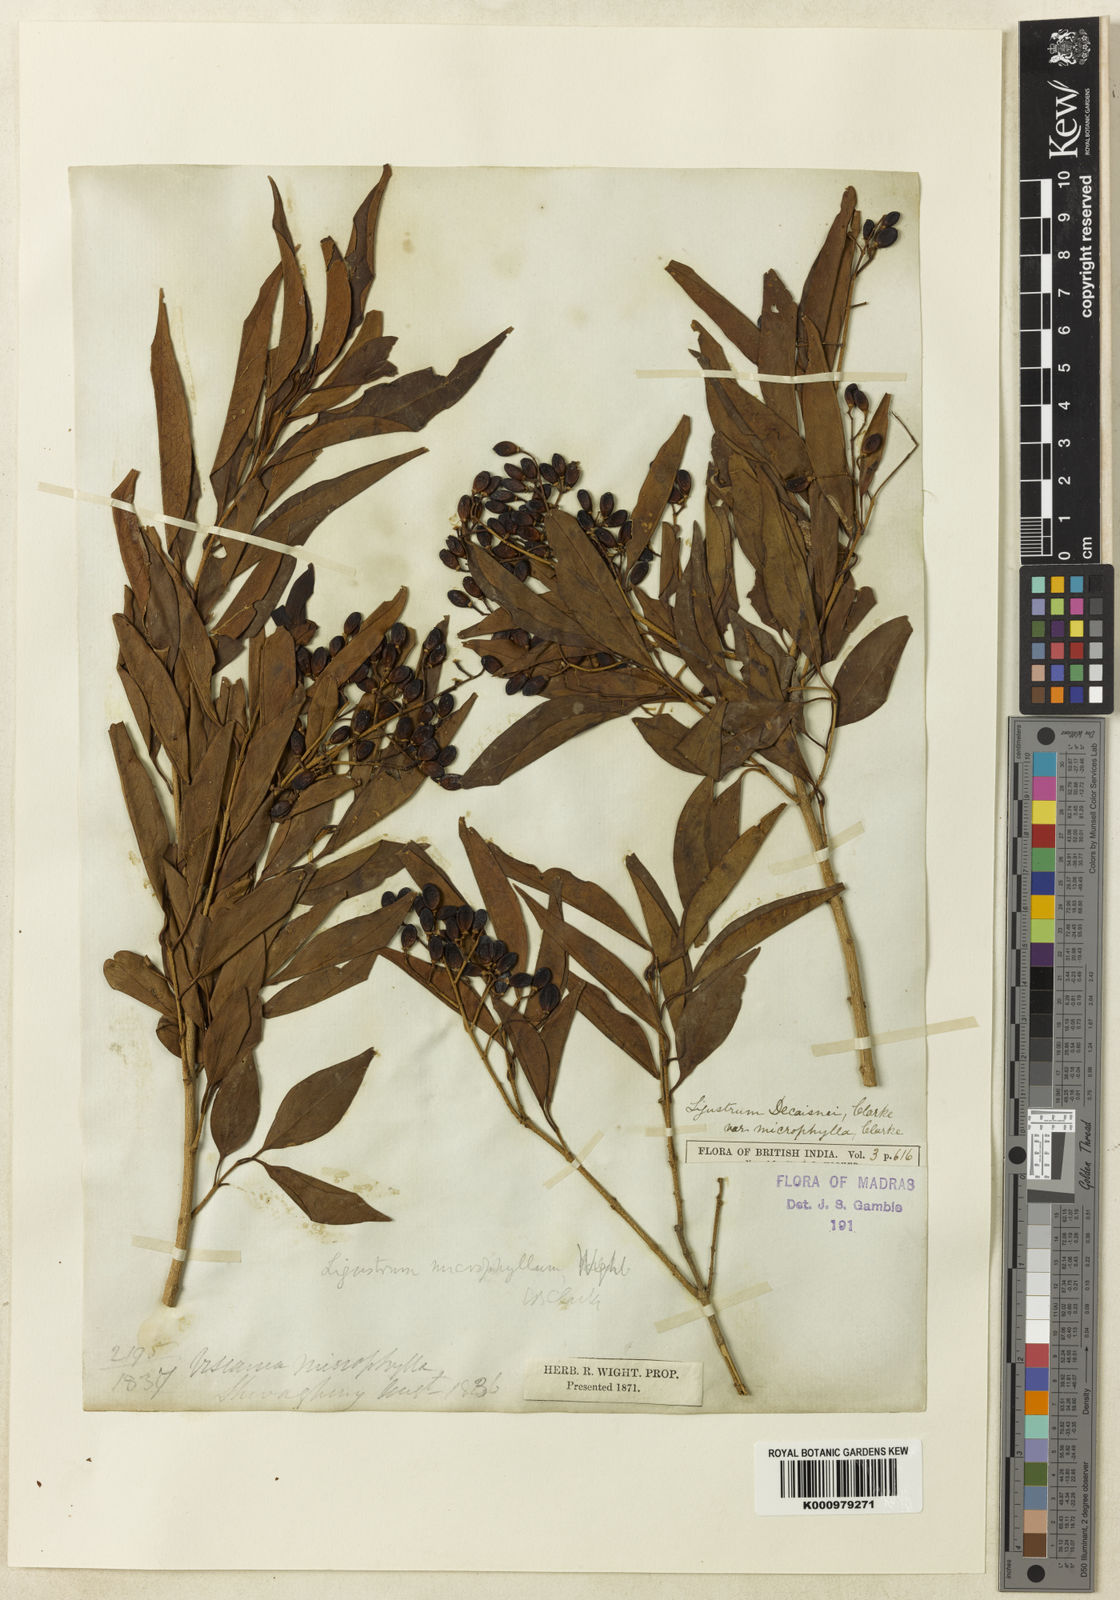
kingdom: Plantae
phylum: Tracheophyta
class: Magnoliopsida
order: Lamiales
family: Oleaceae
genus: Ligustrum
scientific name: Ligustrum robustum
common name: Tree privet
